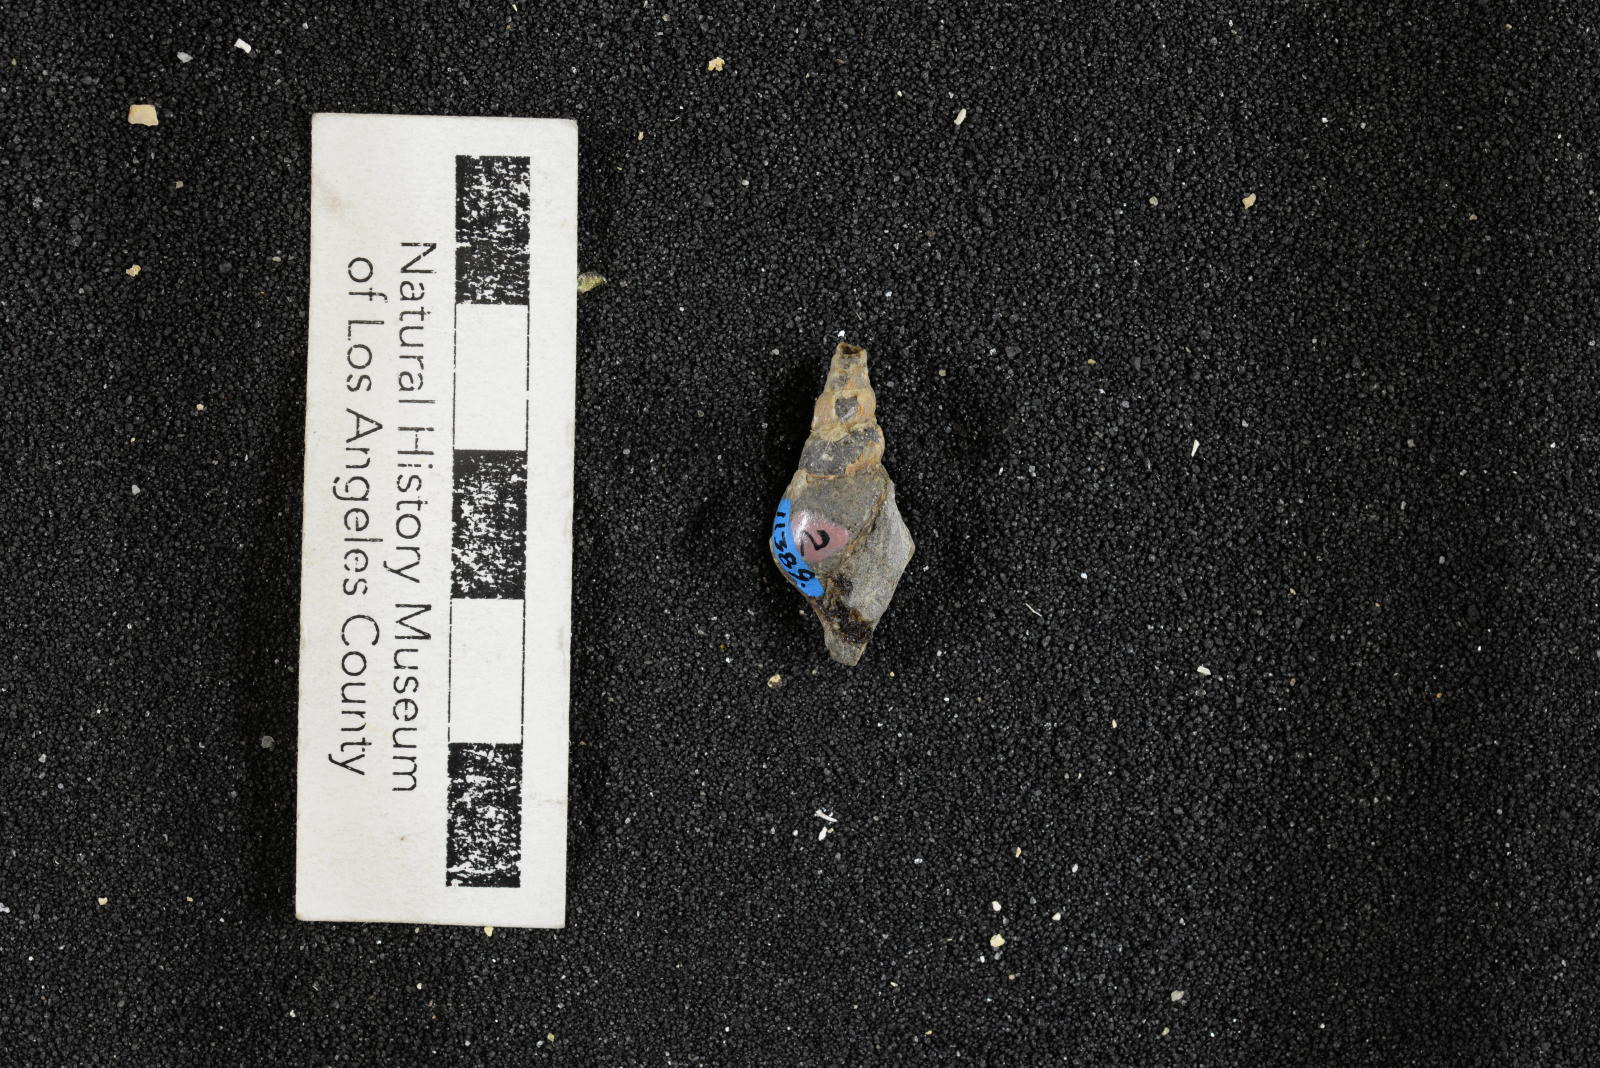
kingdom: Animalia
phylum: Mollusca
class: Gastropoda
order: Littorinimorpha
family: Aporrhaidae
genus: Latiala
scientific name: Latiala Aporrhais californica
